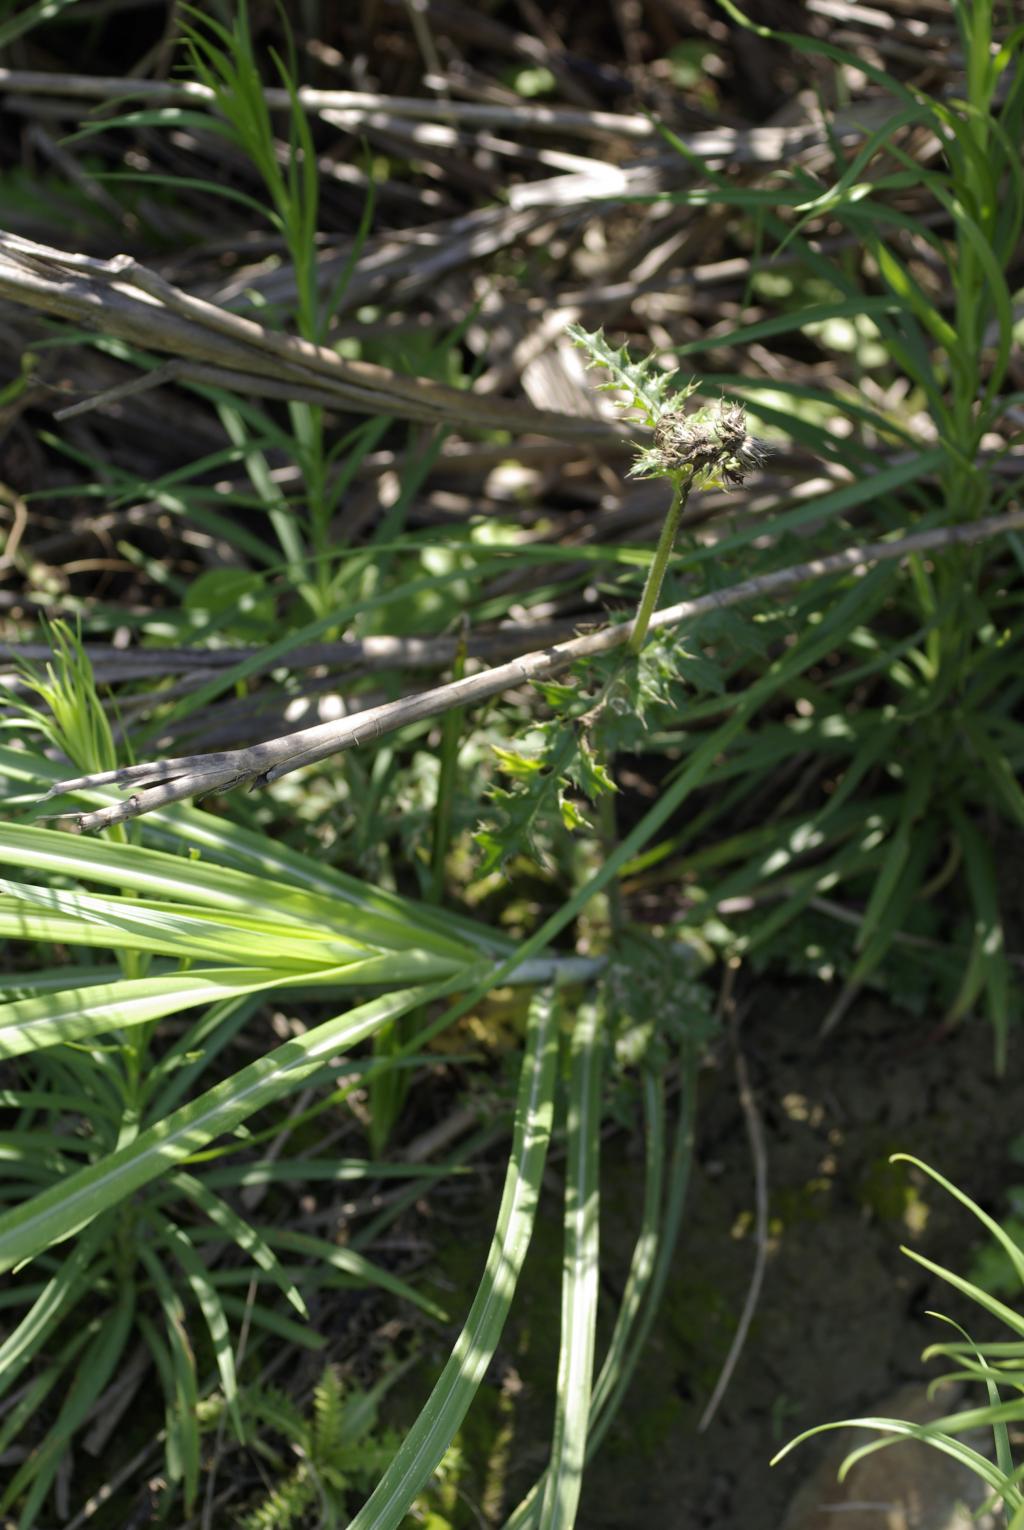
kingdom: Plantae
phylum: Tracheophyta
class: Magnoliopsida
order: Asterales
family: Asteraceae
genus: Cirsium
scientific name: Cirsium japonicum
